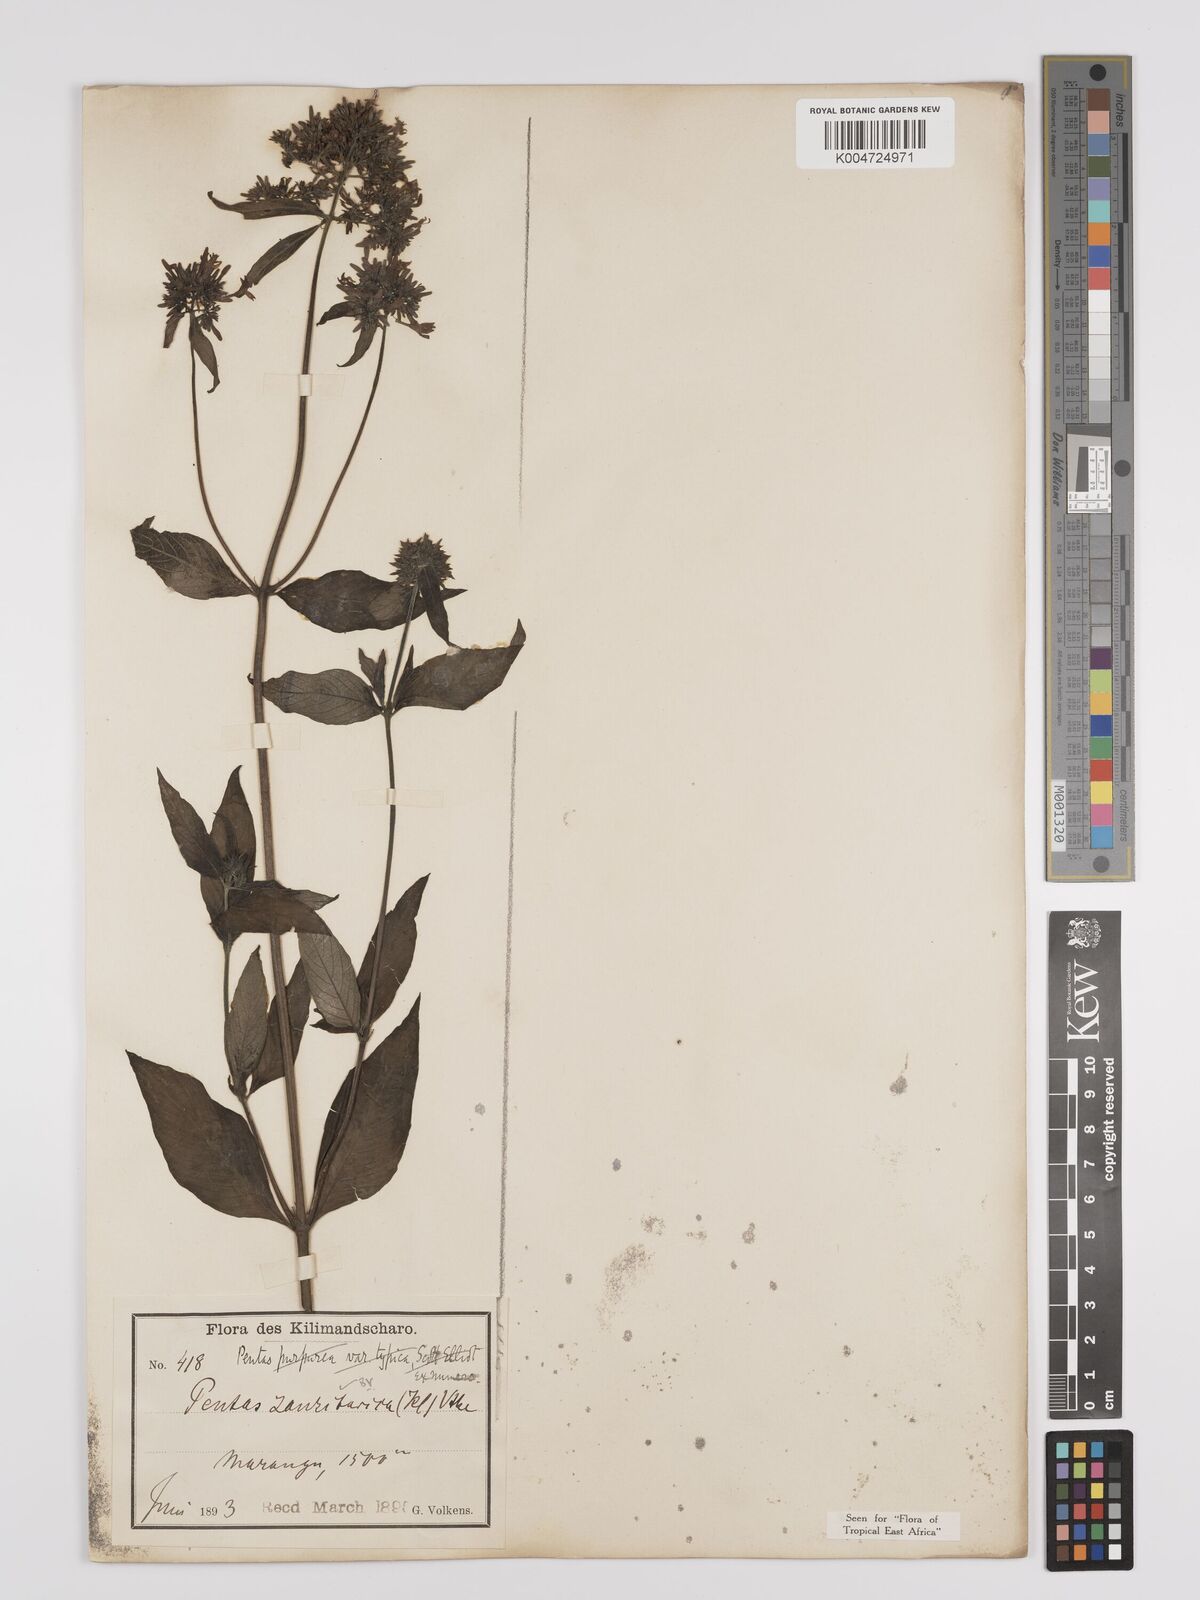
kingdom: Plantae
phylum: Tracheophyta
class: Magnoliopsida
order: Gentianales
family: Rubiaceae
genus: Pentas
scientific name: Pentas zanzibarica
